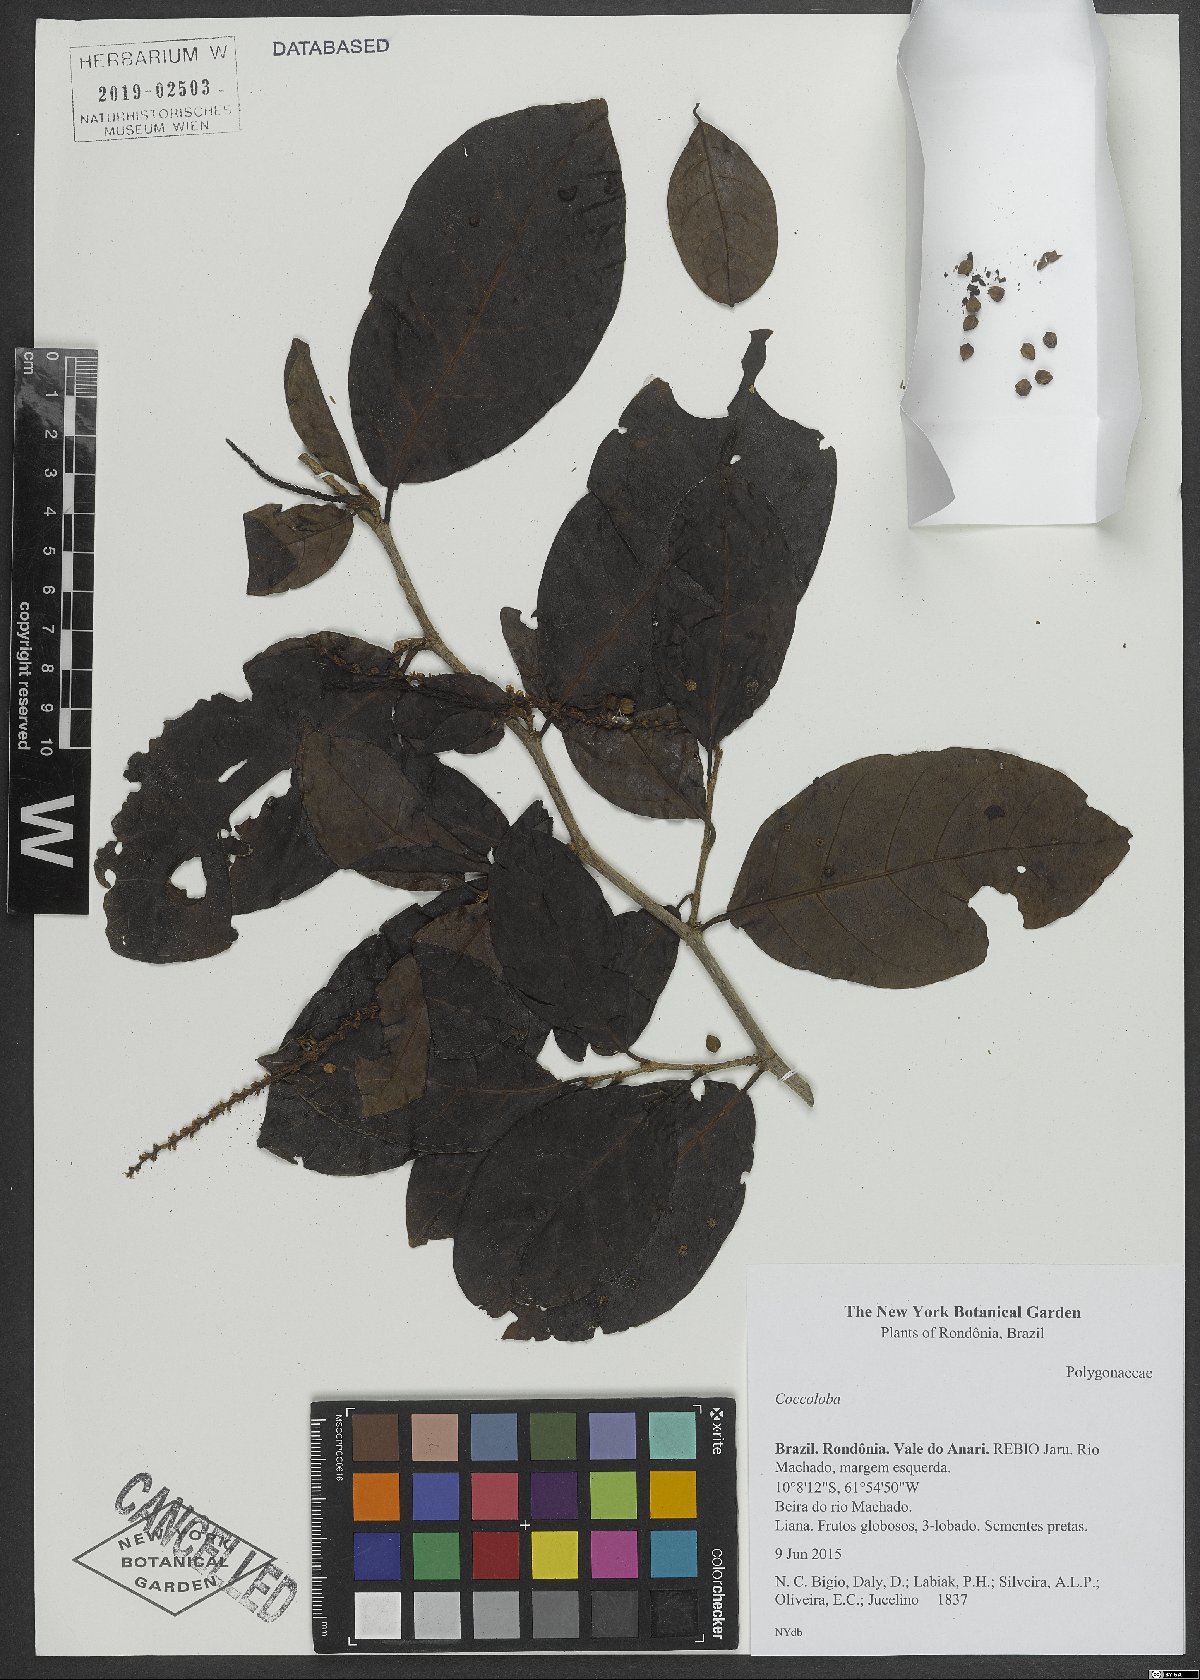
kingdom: Plantae
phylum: Tracheophyta
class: Magnoliopsida
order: Caryophyllales
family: Polygonaceae
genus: Coccoloba
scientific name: Coccoloba
